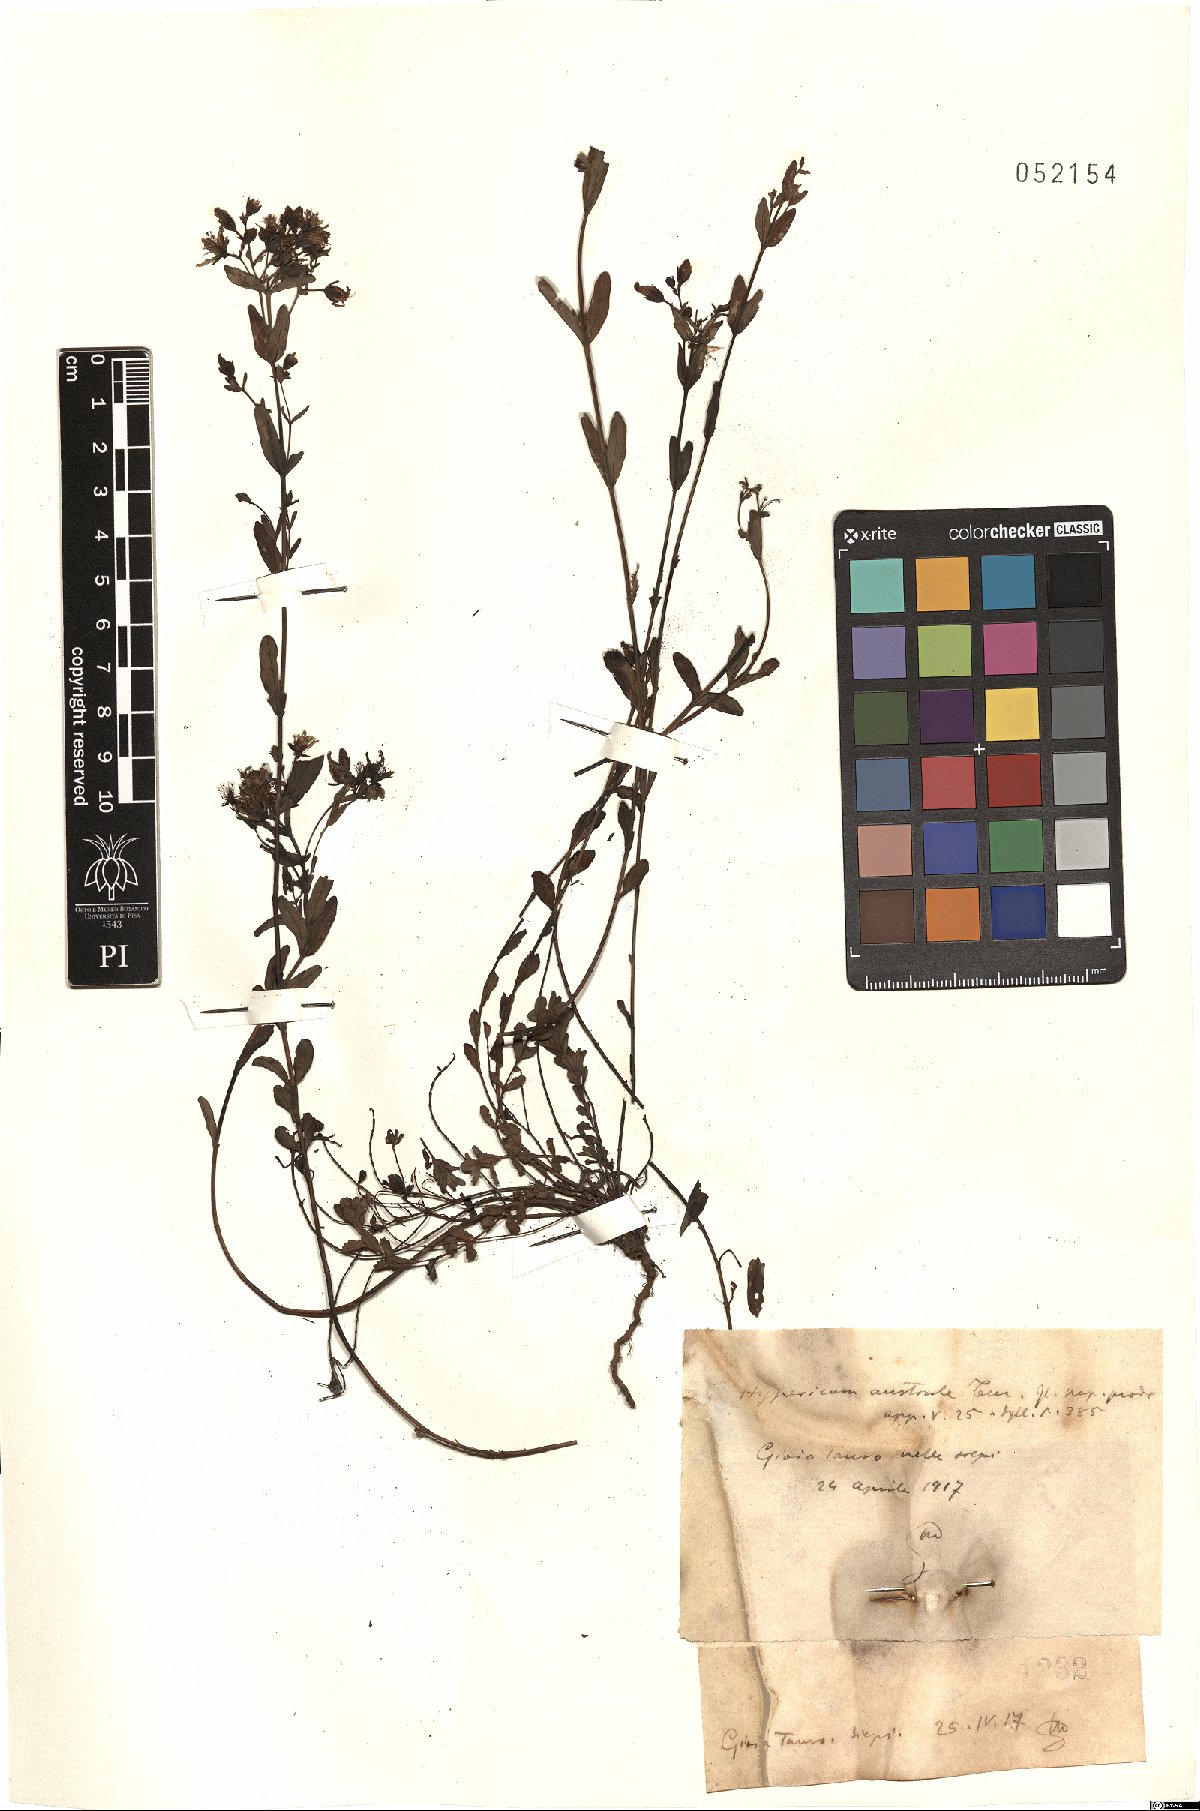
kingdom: Plantae
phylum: Tracheophyta
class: Magnoliopsida
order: Malpighiales
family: Hypericaceae
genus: Hypericum
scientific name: Hypericum australe
